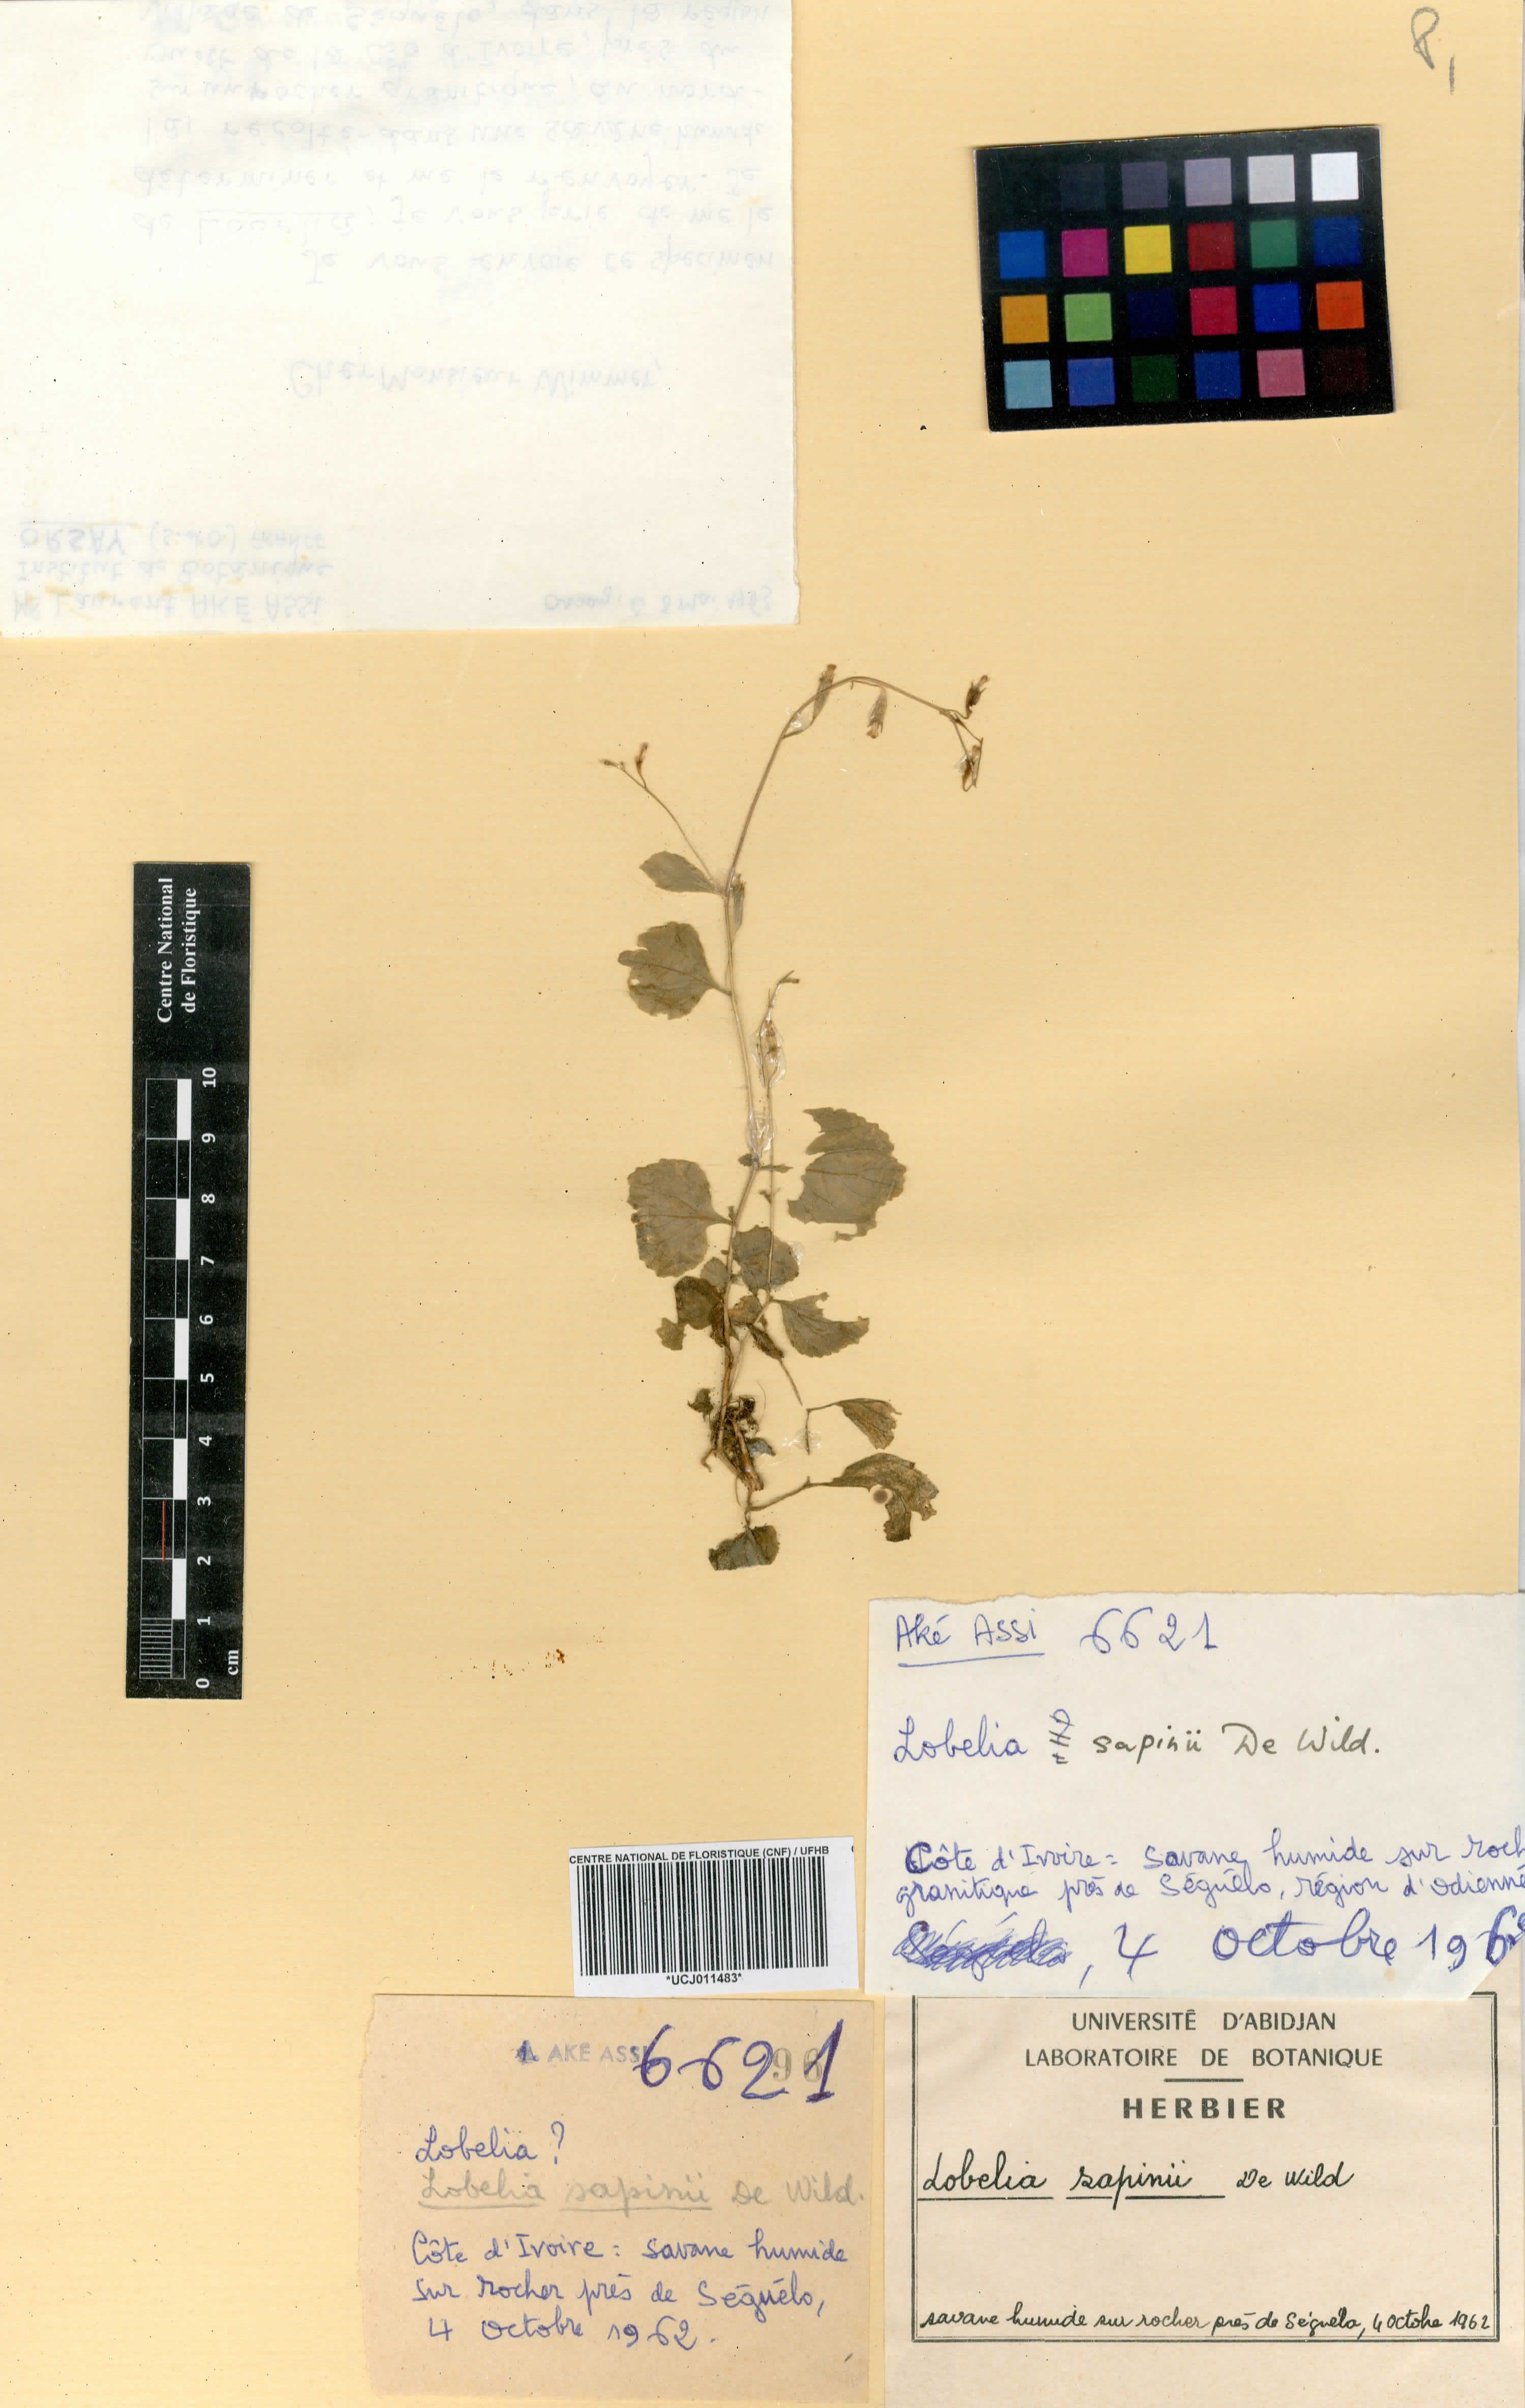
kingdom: Plantae
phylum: Tracheophyta
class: Magnoliopsida
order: Asterales
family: Campanulaceae
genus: Lobelia
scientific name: Lobelia sapinii
